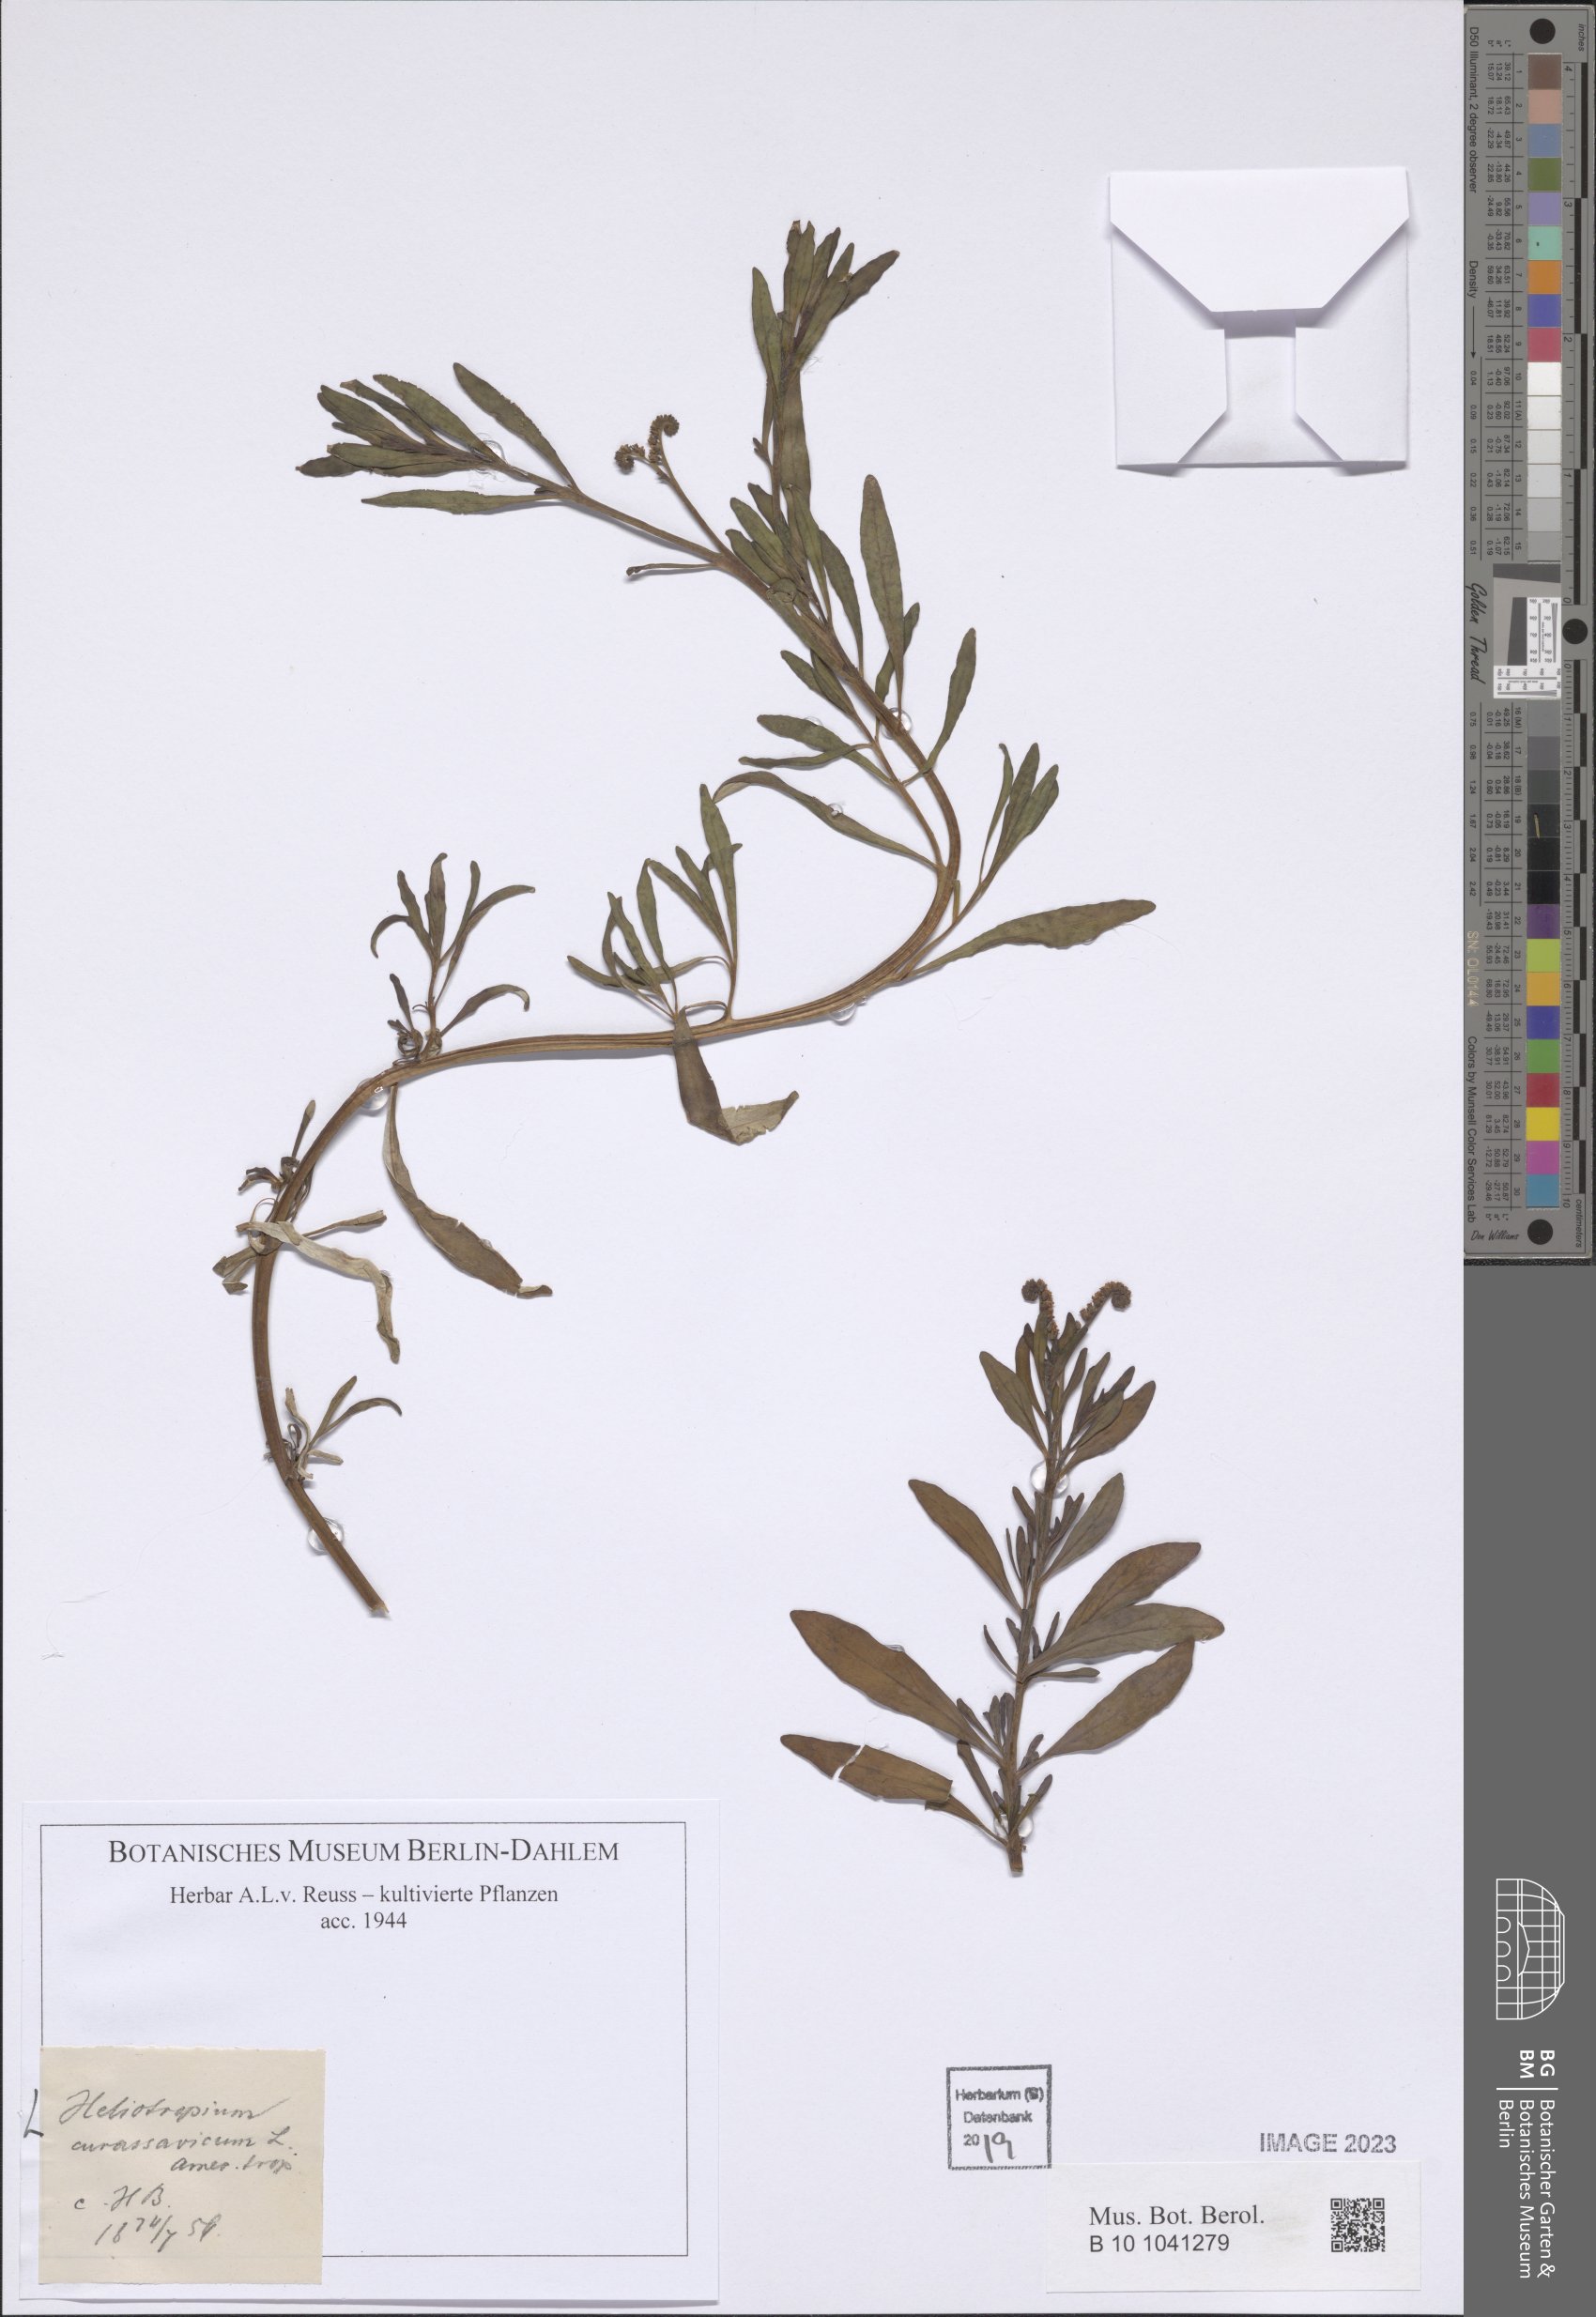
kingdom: Plantae
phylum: Tracheophyta
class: Magnoliopsida
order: Boraginales
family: Heliotropiaceae
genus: Heliotropium
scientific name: Heliotropium curassavicum
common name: Seaside heliotrope
